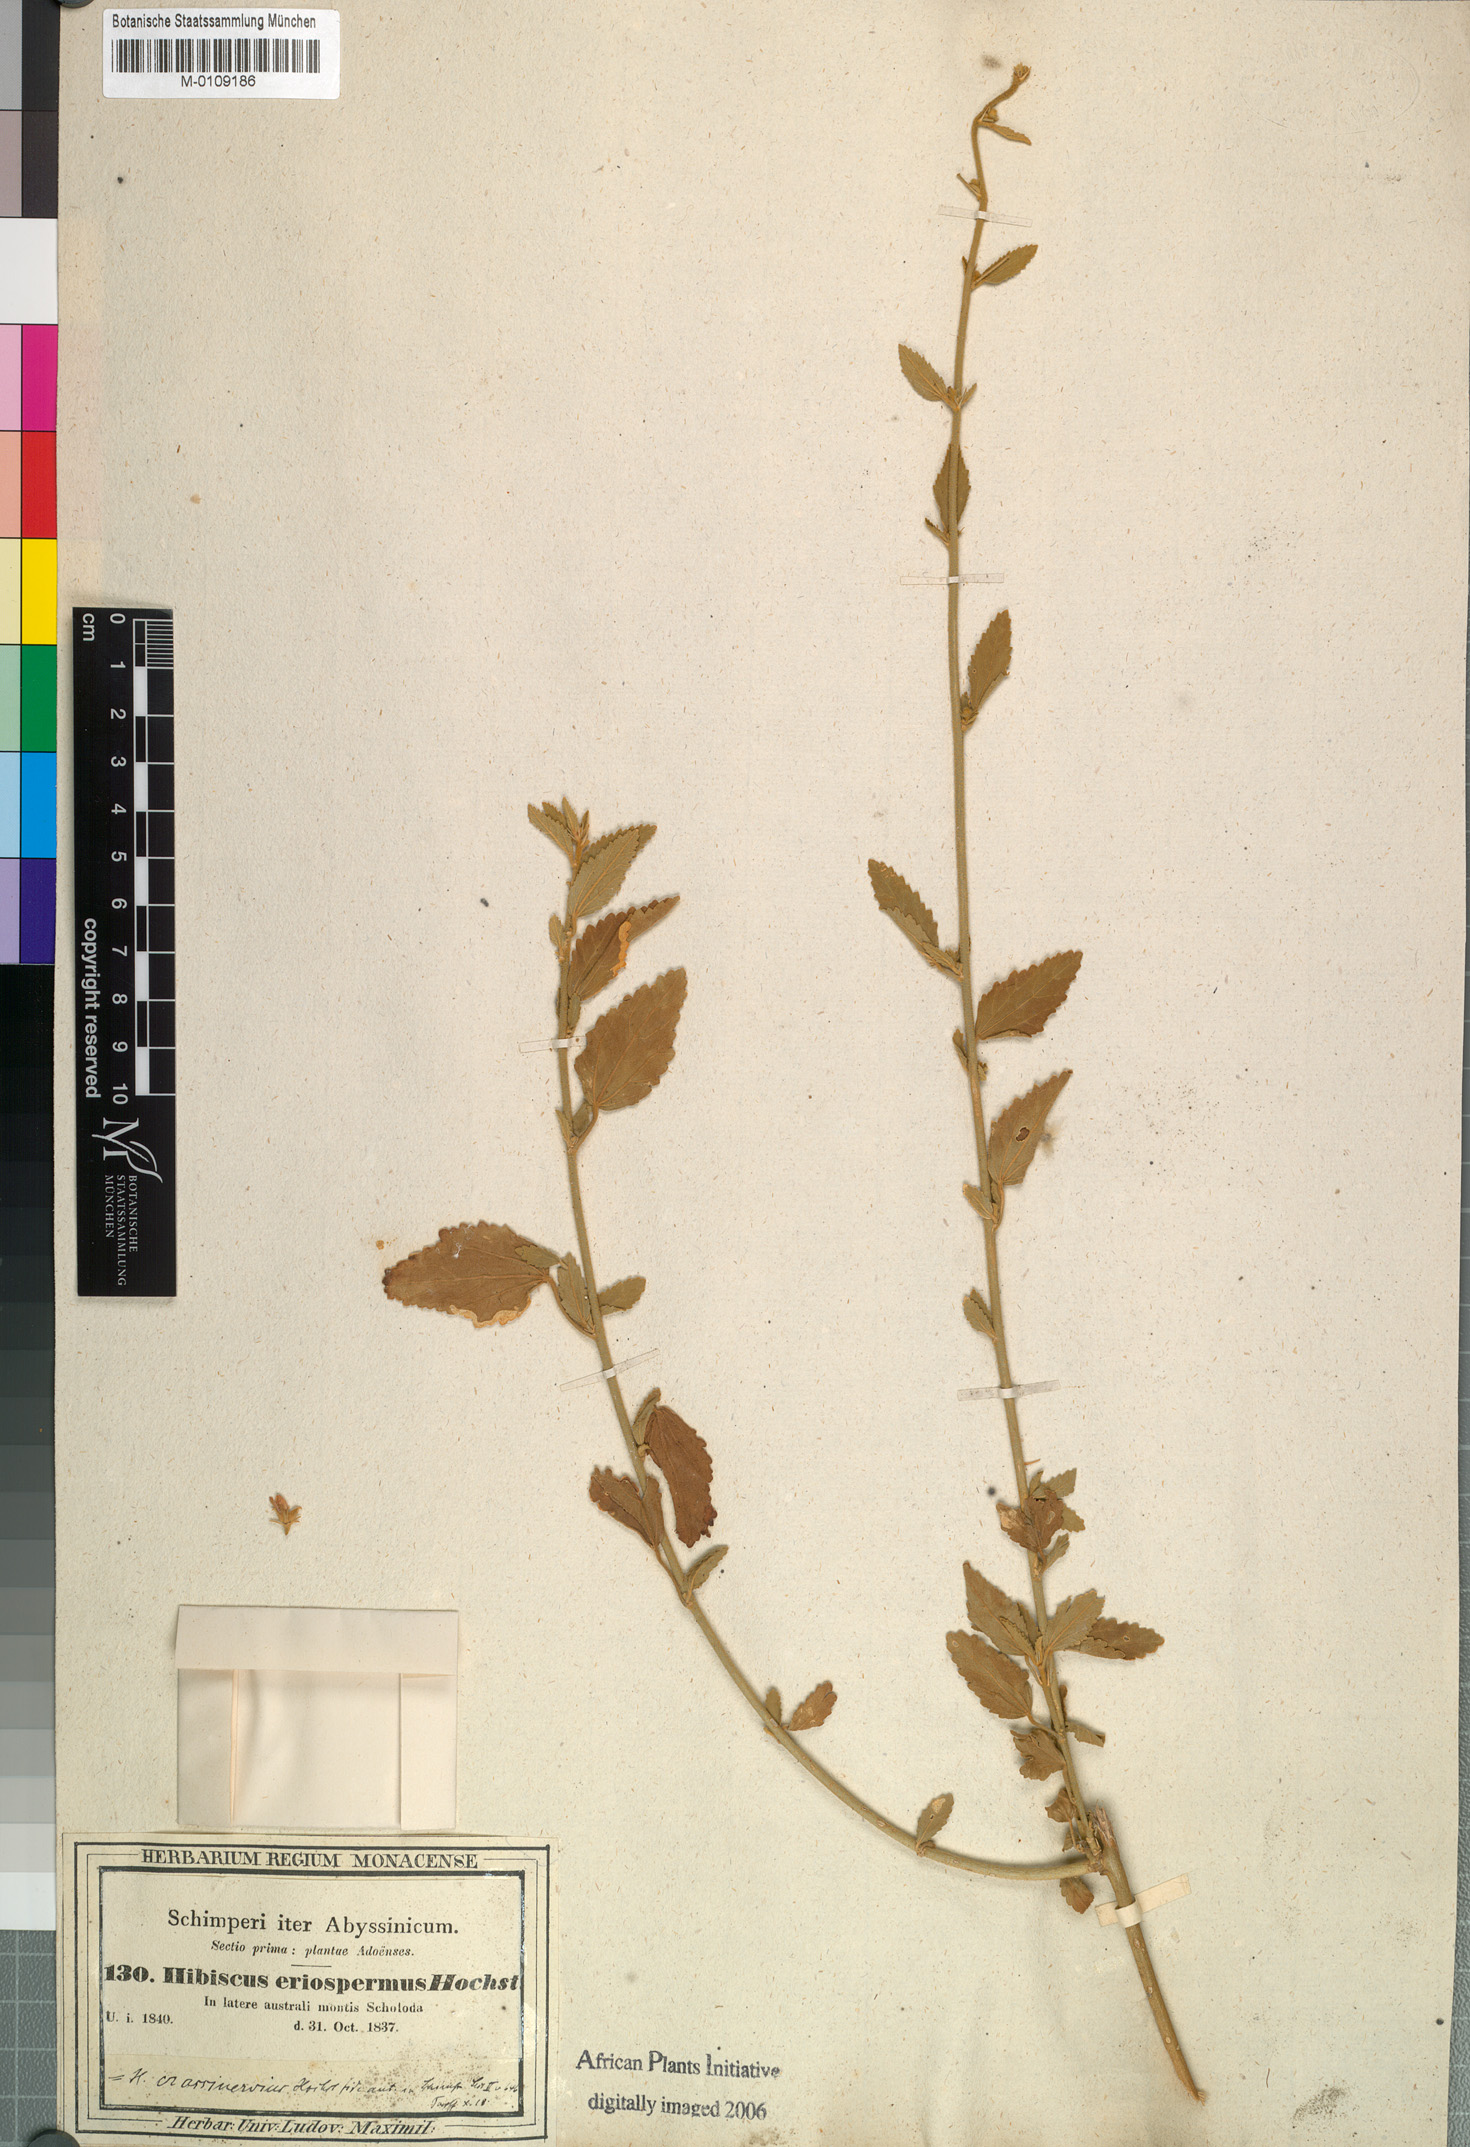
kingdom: Plantae
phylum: Tracheophyta
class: Magnoliopsida
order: Malvales
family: Malvaceae
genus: Hibiscus
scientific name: Hibiscus eriospermus
